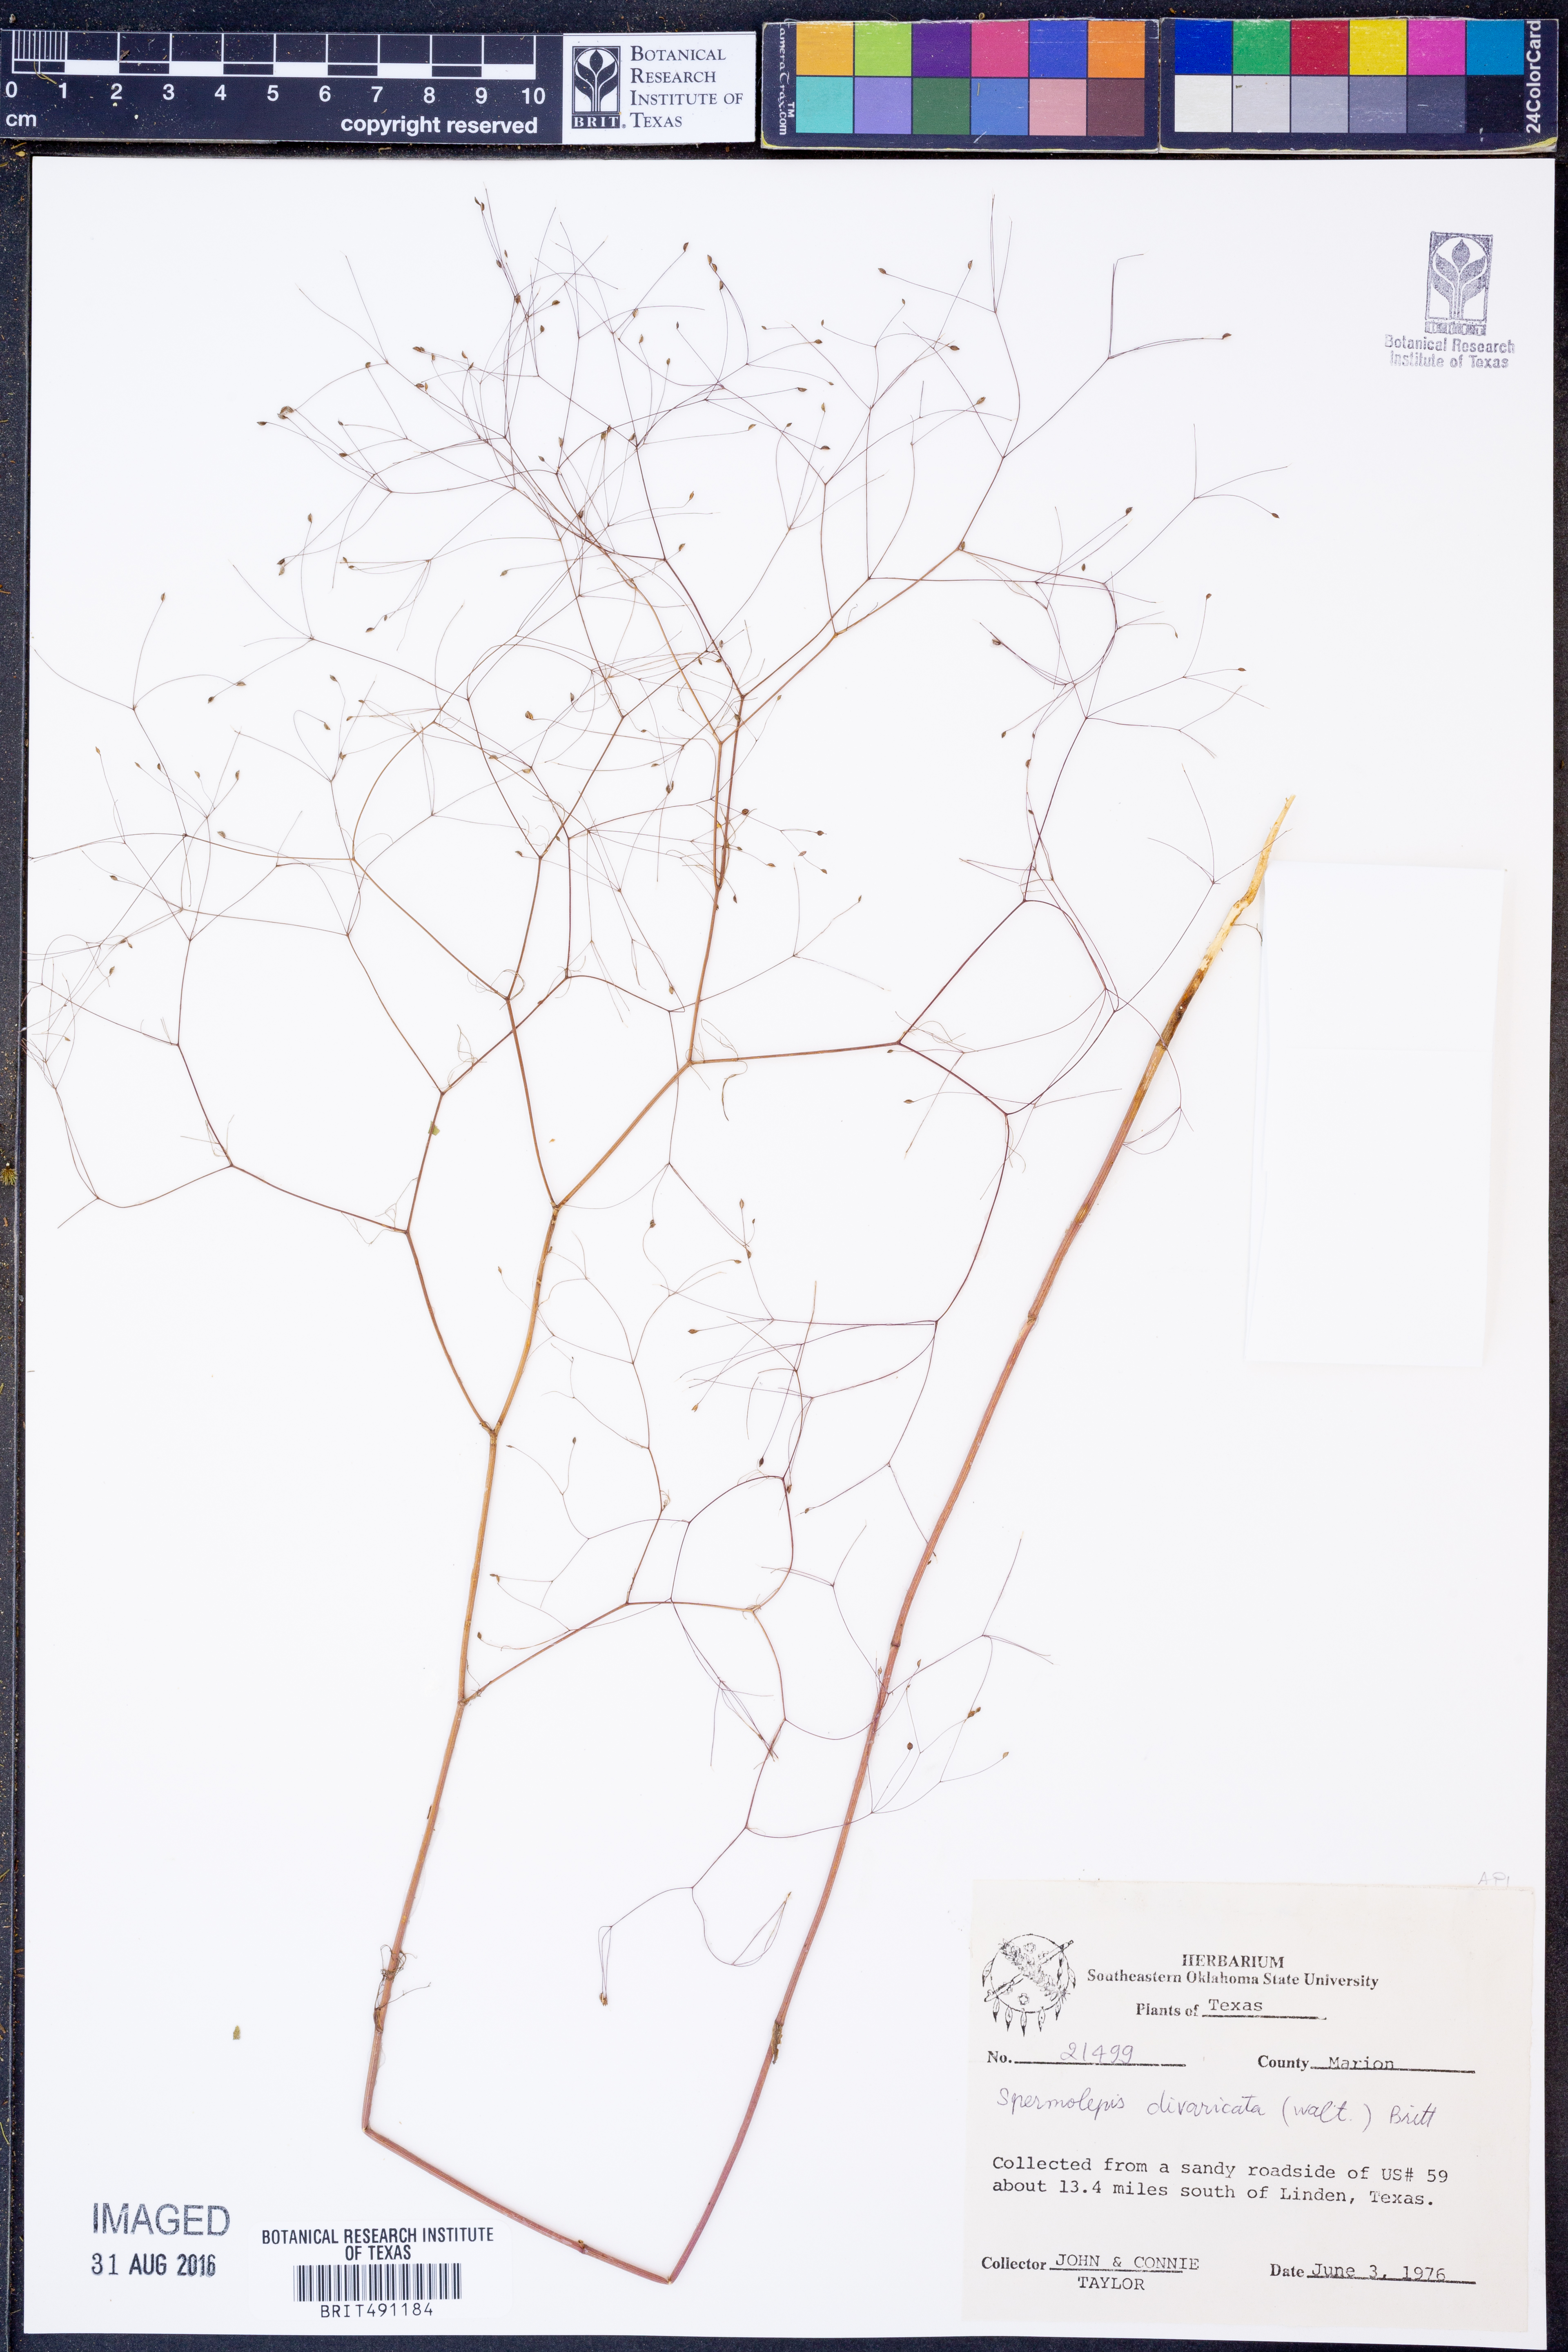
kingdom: Plantae
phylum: Tracheophyta
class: Magnoliopsida
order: Apiales
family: Apiaceae
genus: Spermolepis
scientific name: Spermolepis divaricata
